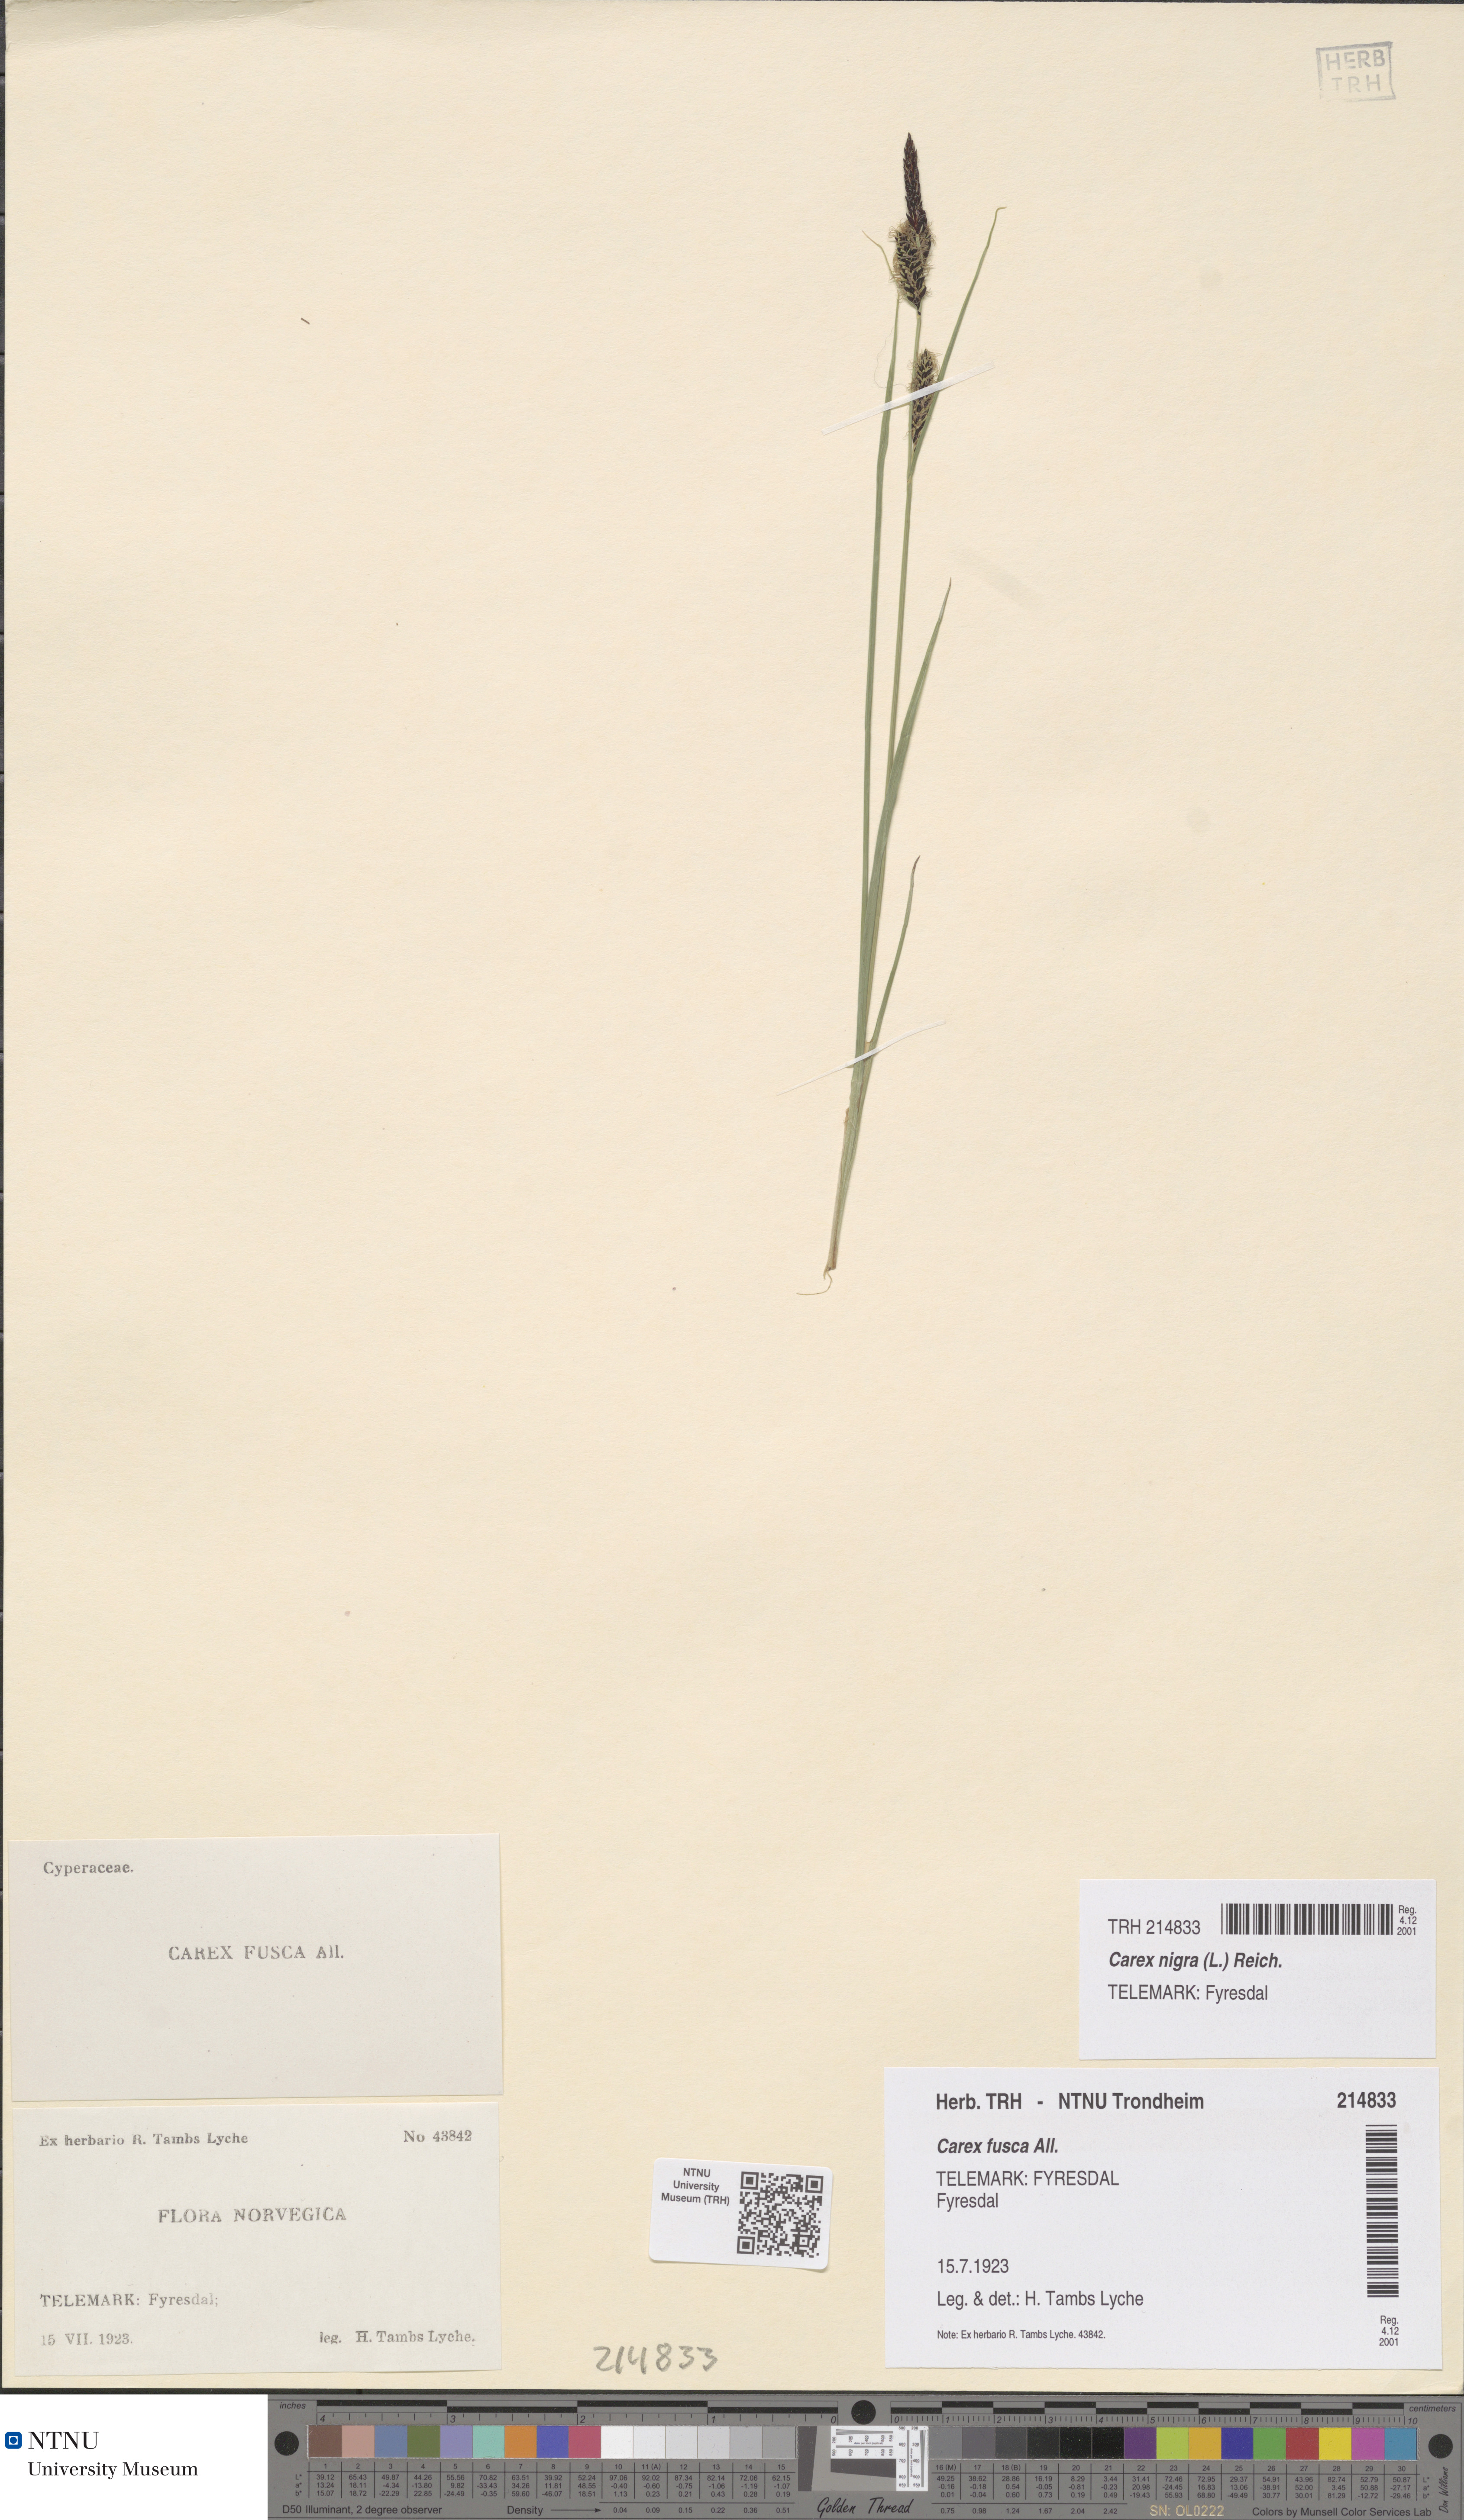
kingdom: Plantae
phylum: Tracheophyta
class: Liliopsida
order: Poales
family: Cyperaceae
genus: Carex
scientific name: Carex nigra
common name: Common sedge
